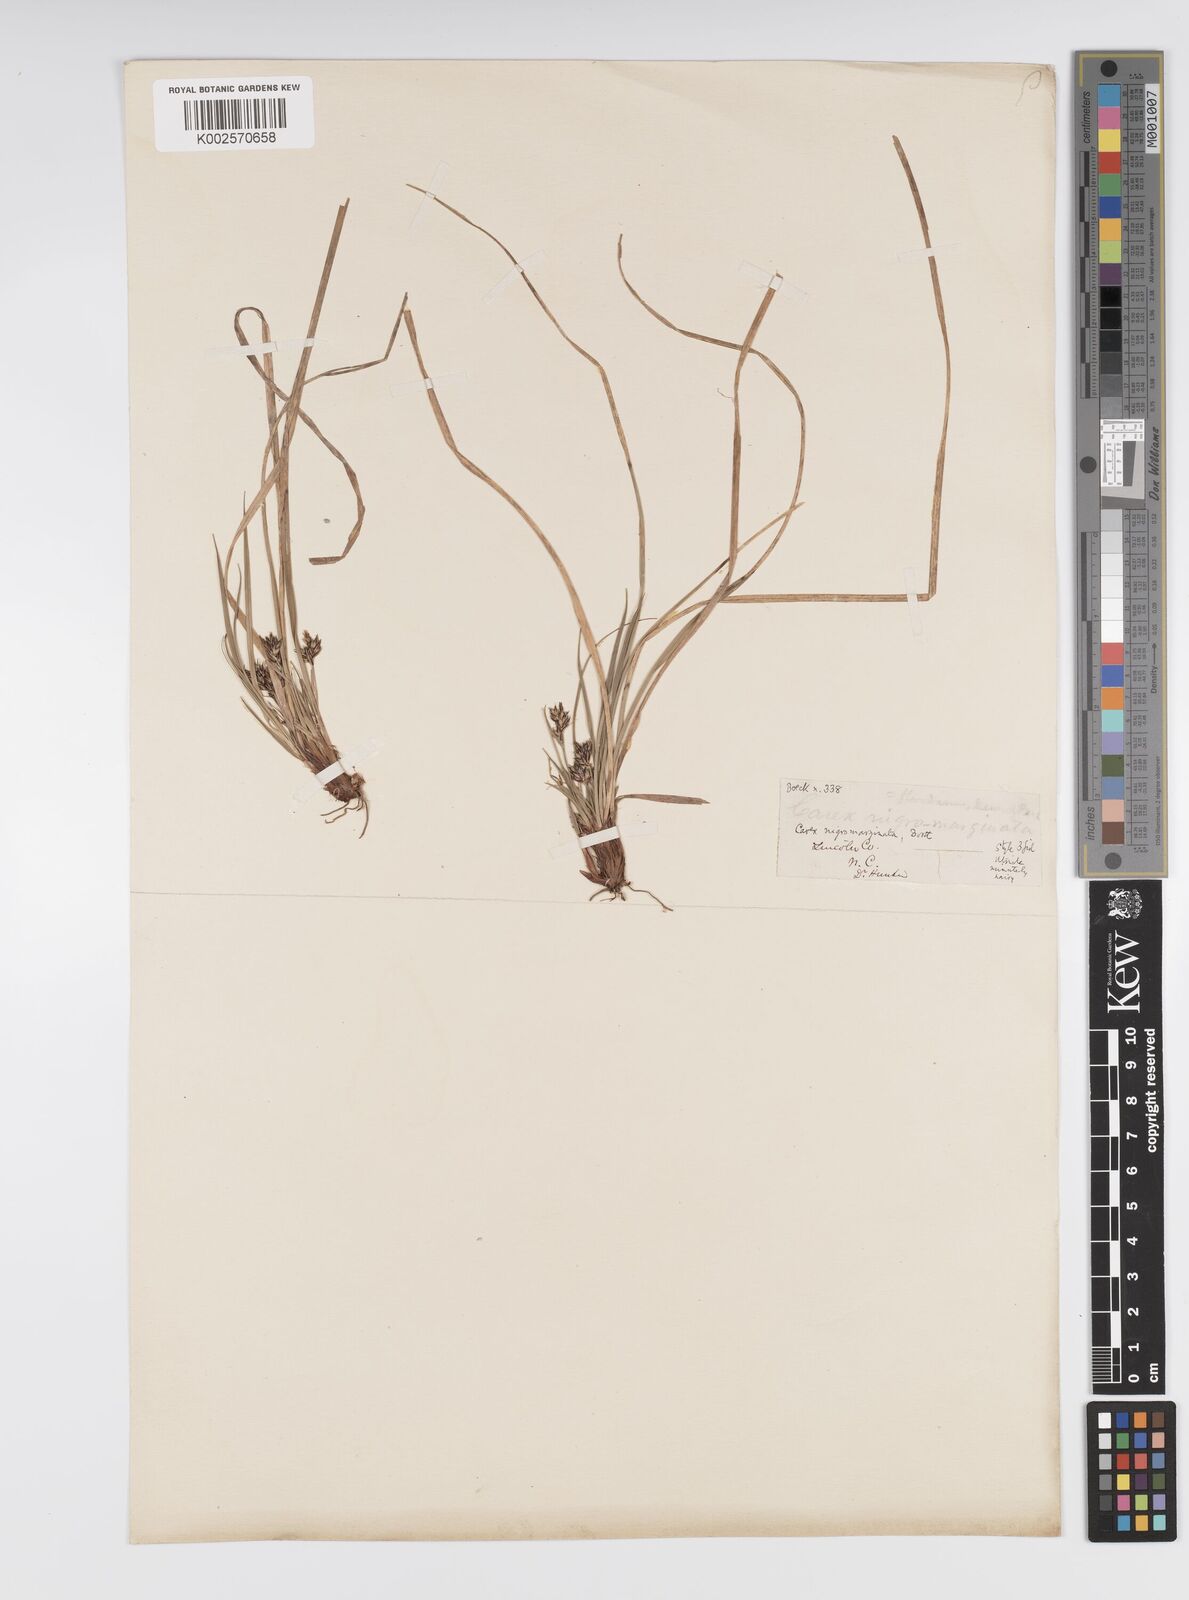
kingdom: Plantae
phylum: Tracheophyta
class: Liliopsida
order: Poales
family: Cyperaceae
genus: Carex
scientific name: Carex globularis
